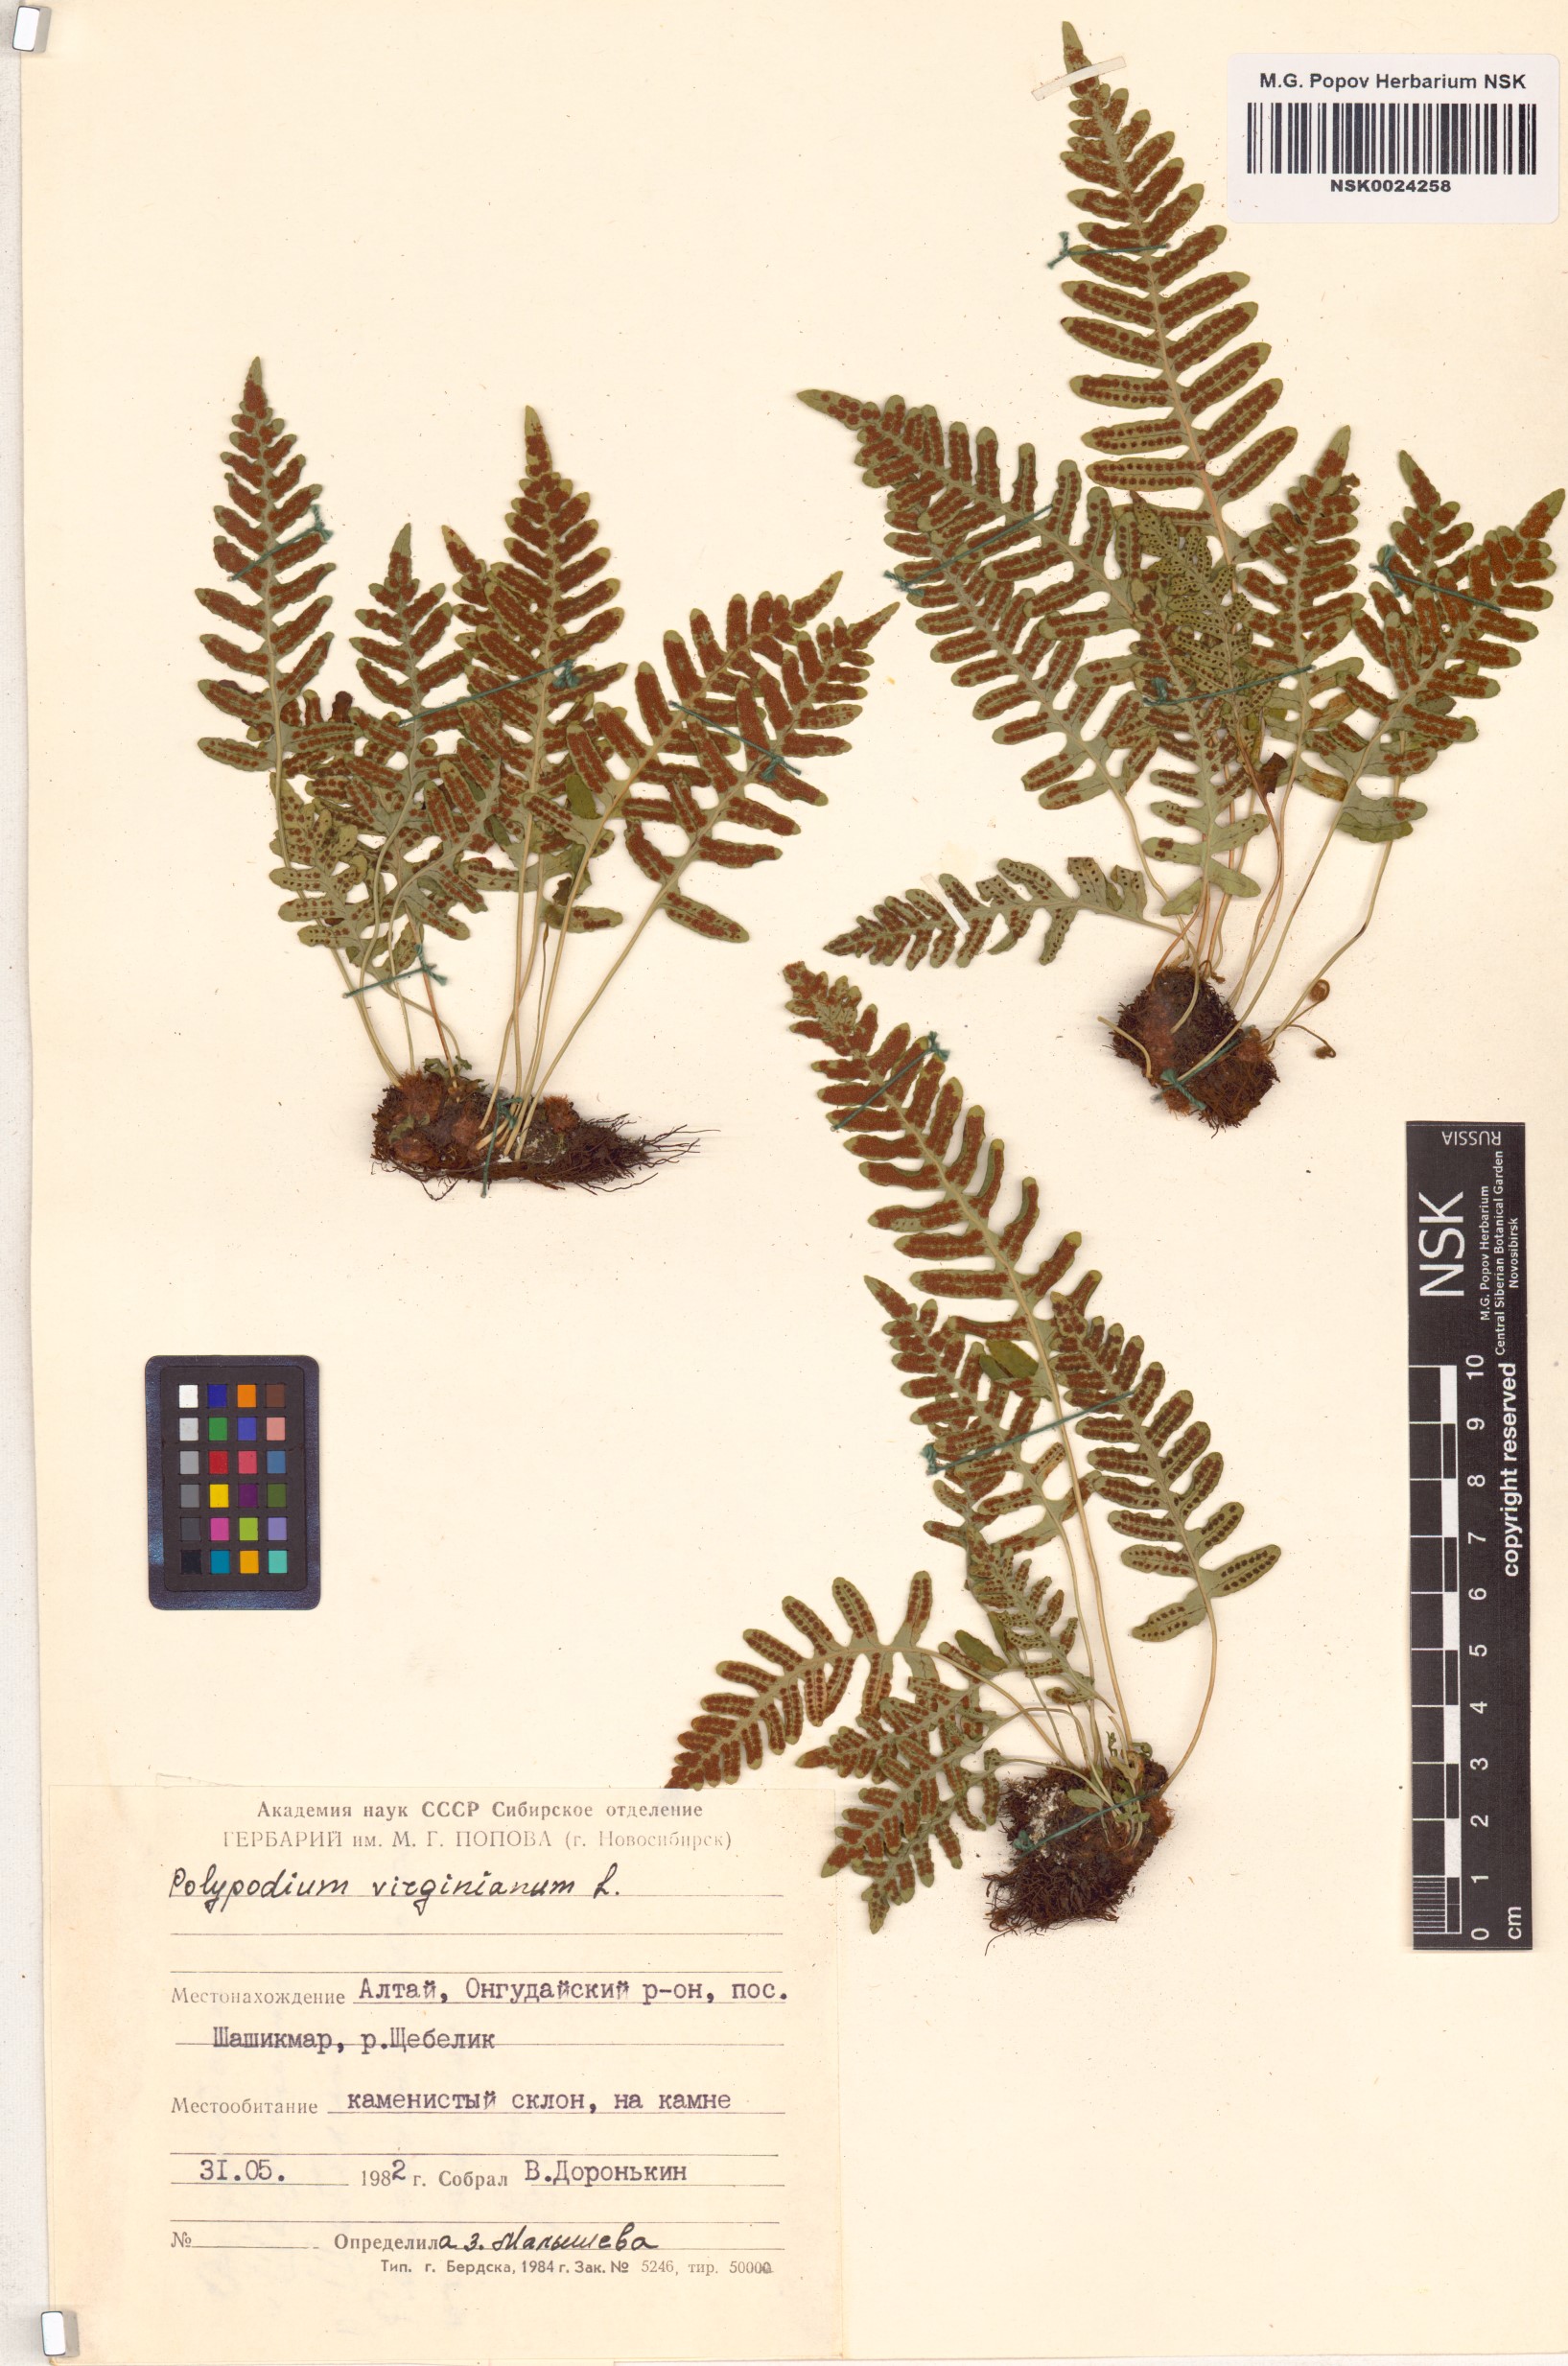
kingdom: Plantae
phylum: Tracheophyta
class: Polypodiopsida
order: Polypodiales
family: Polypodiaceae
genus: Polypodium
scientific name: Polypodium virginianum
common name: American wall fern
